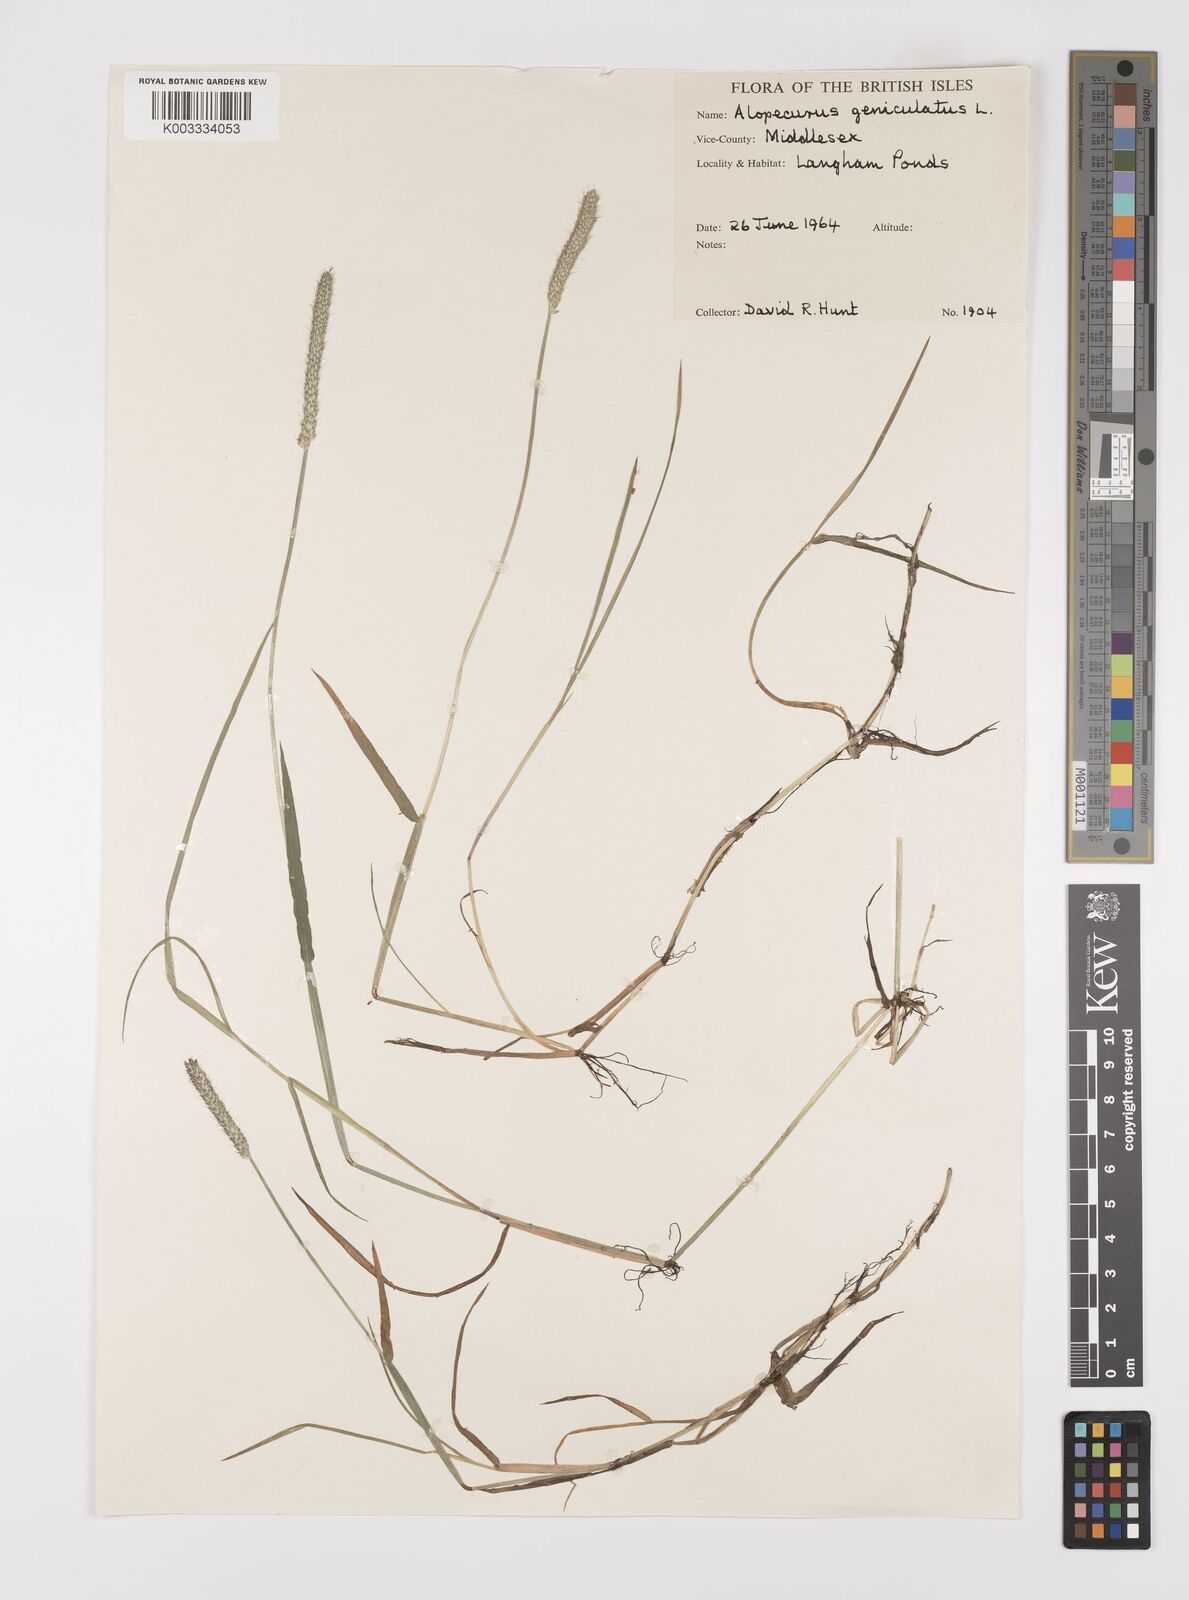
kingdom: Plantae
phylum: Tracheophyta
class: Liliopsida
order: Poales
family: Poaceae
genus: Alopecurus
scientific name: Alopecurus geniculatus
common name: Water foxtail
